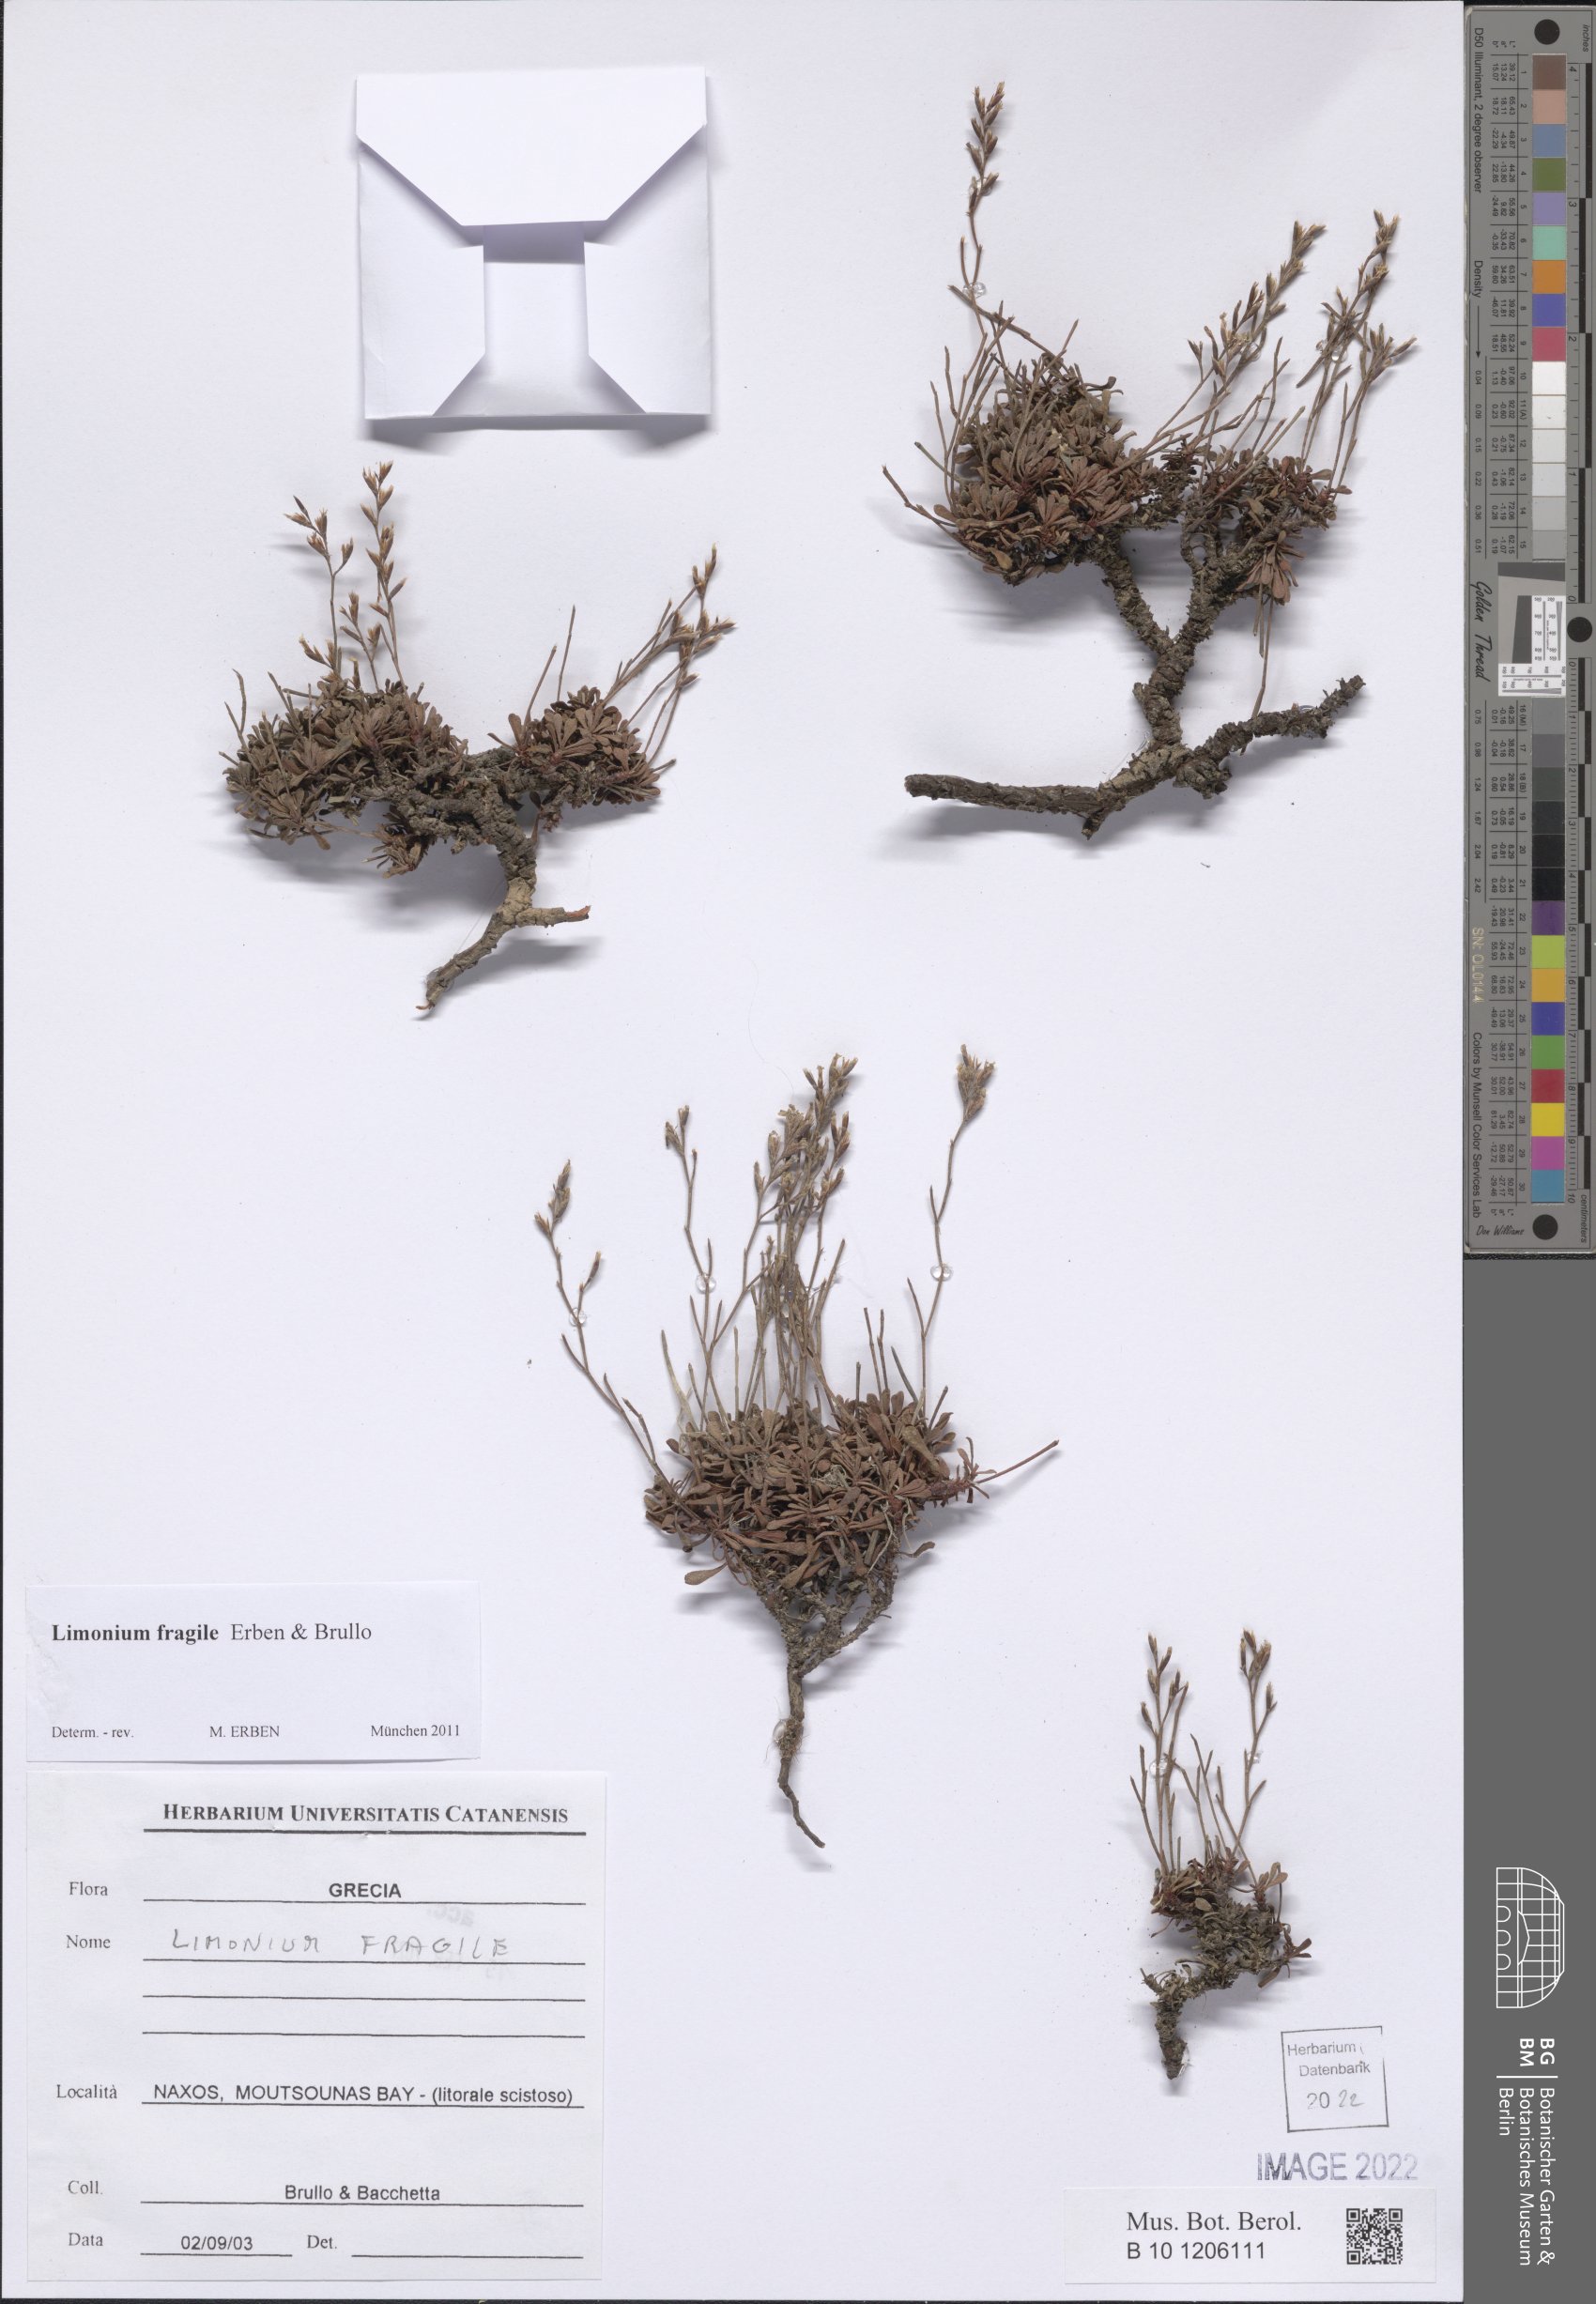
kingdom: Plantae
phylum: Tracheophyta
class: Magnoliopsida
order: Caryophyllales
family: Plumbaginaceae
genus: Limonium
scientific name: Limonium fragile
